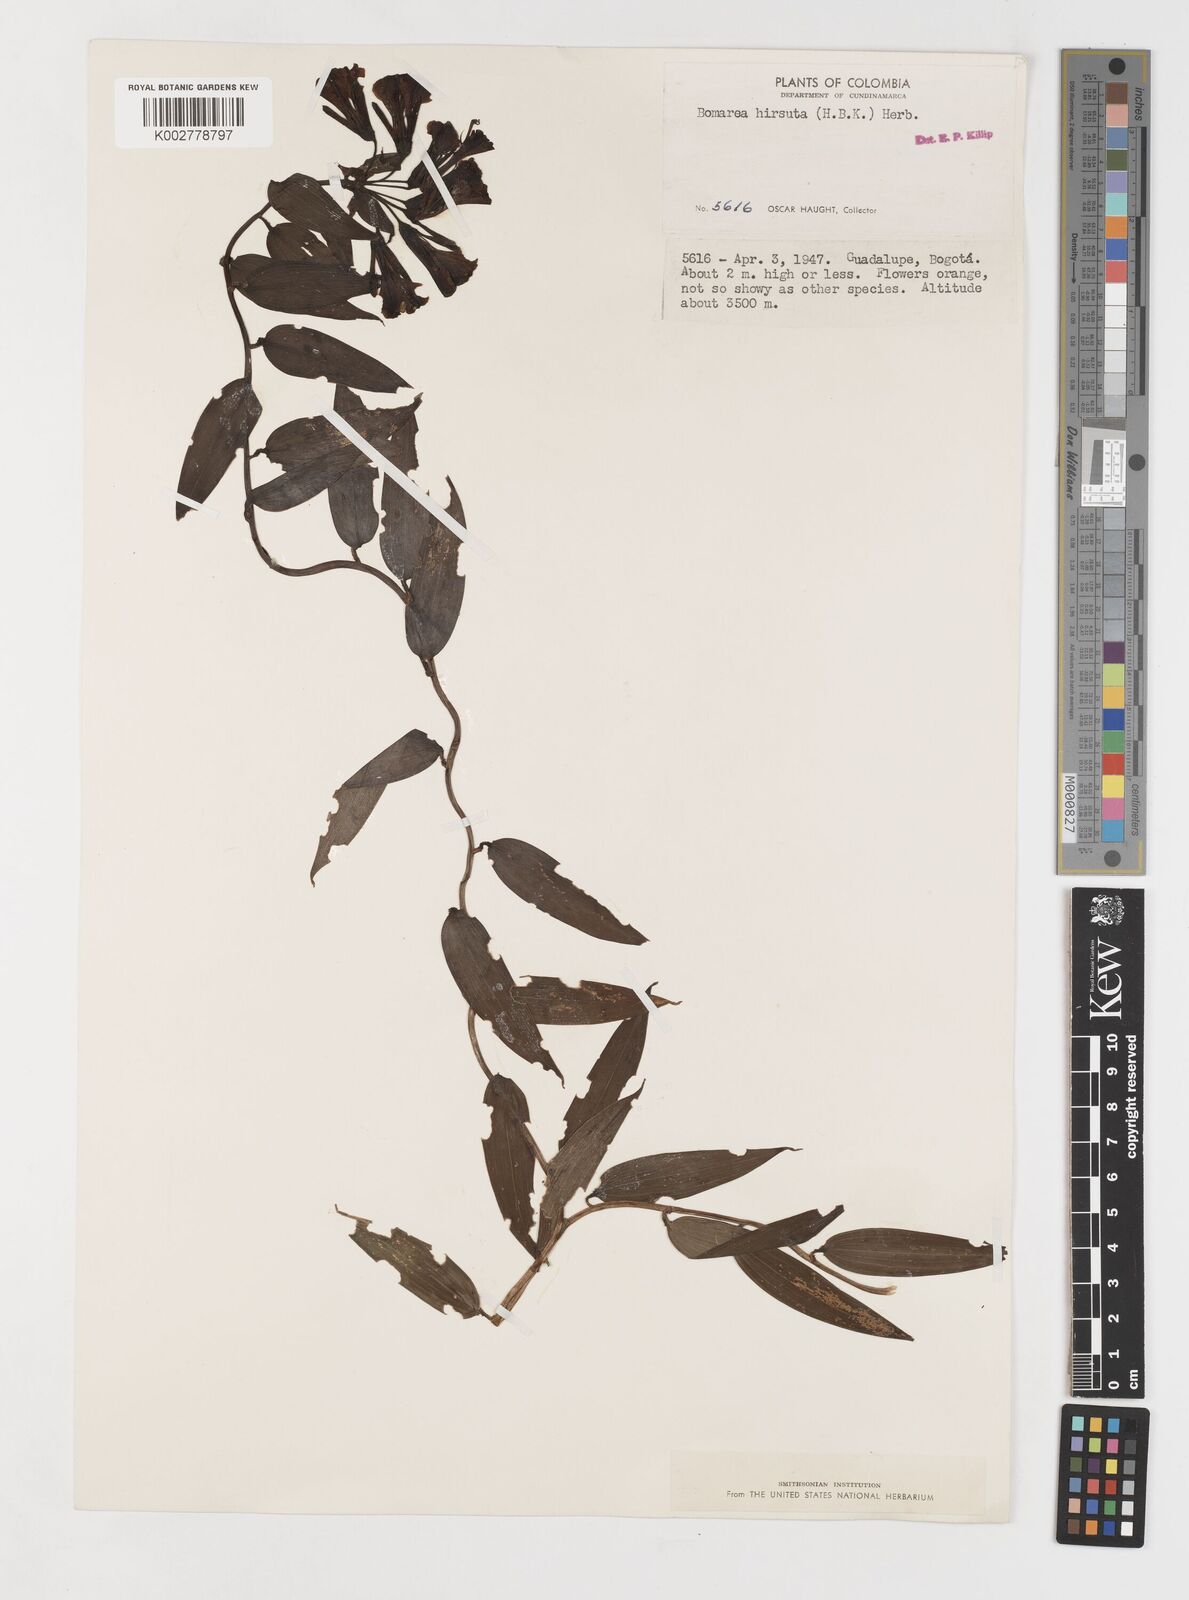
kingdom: Plantae
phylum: Tracheophyta
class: Liliopsida
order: Liliales
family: Alstroemeriaceae
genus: Bomarea
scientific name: Bomarea hirsuta
